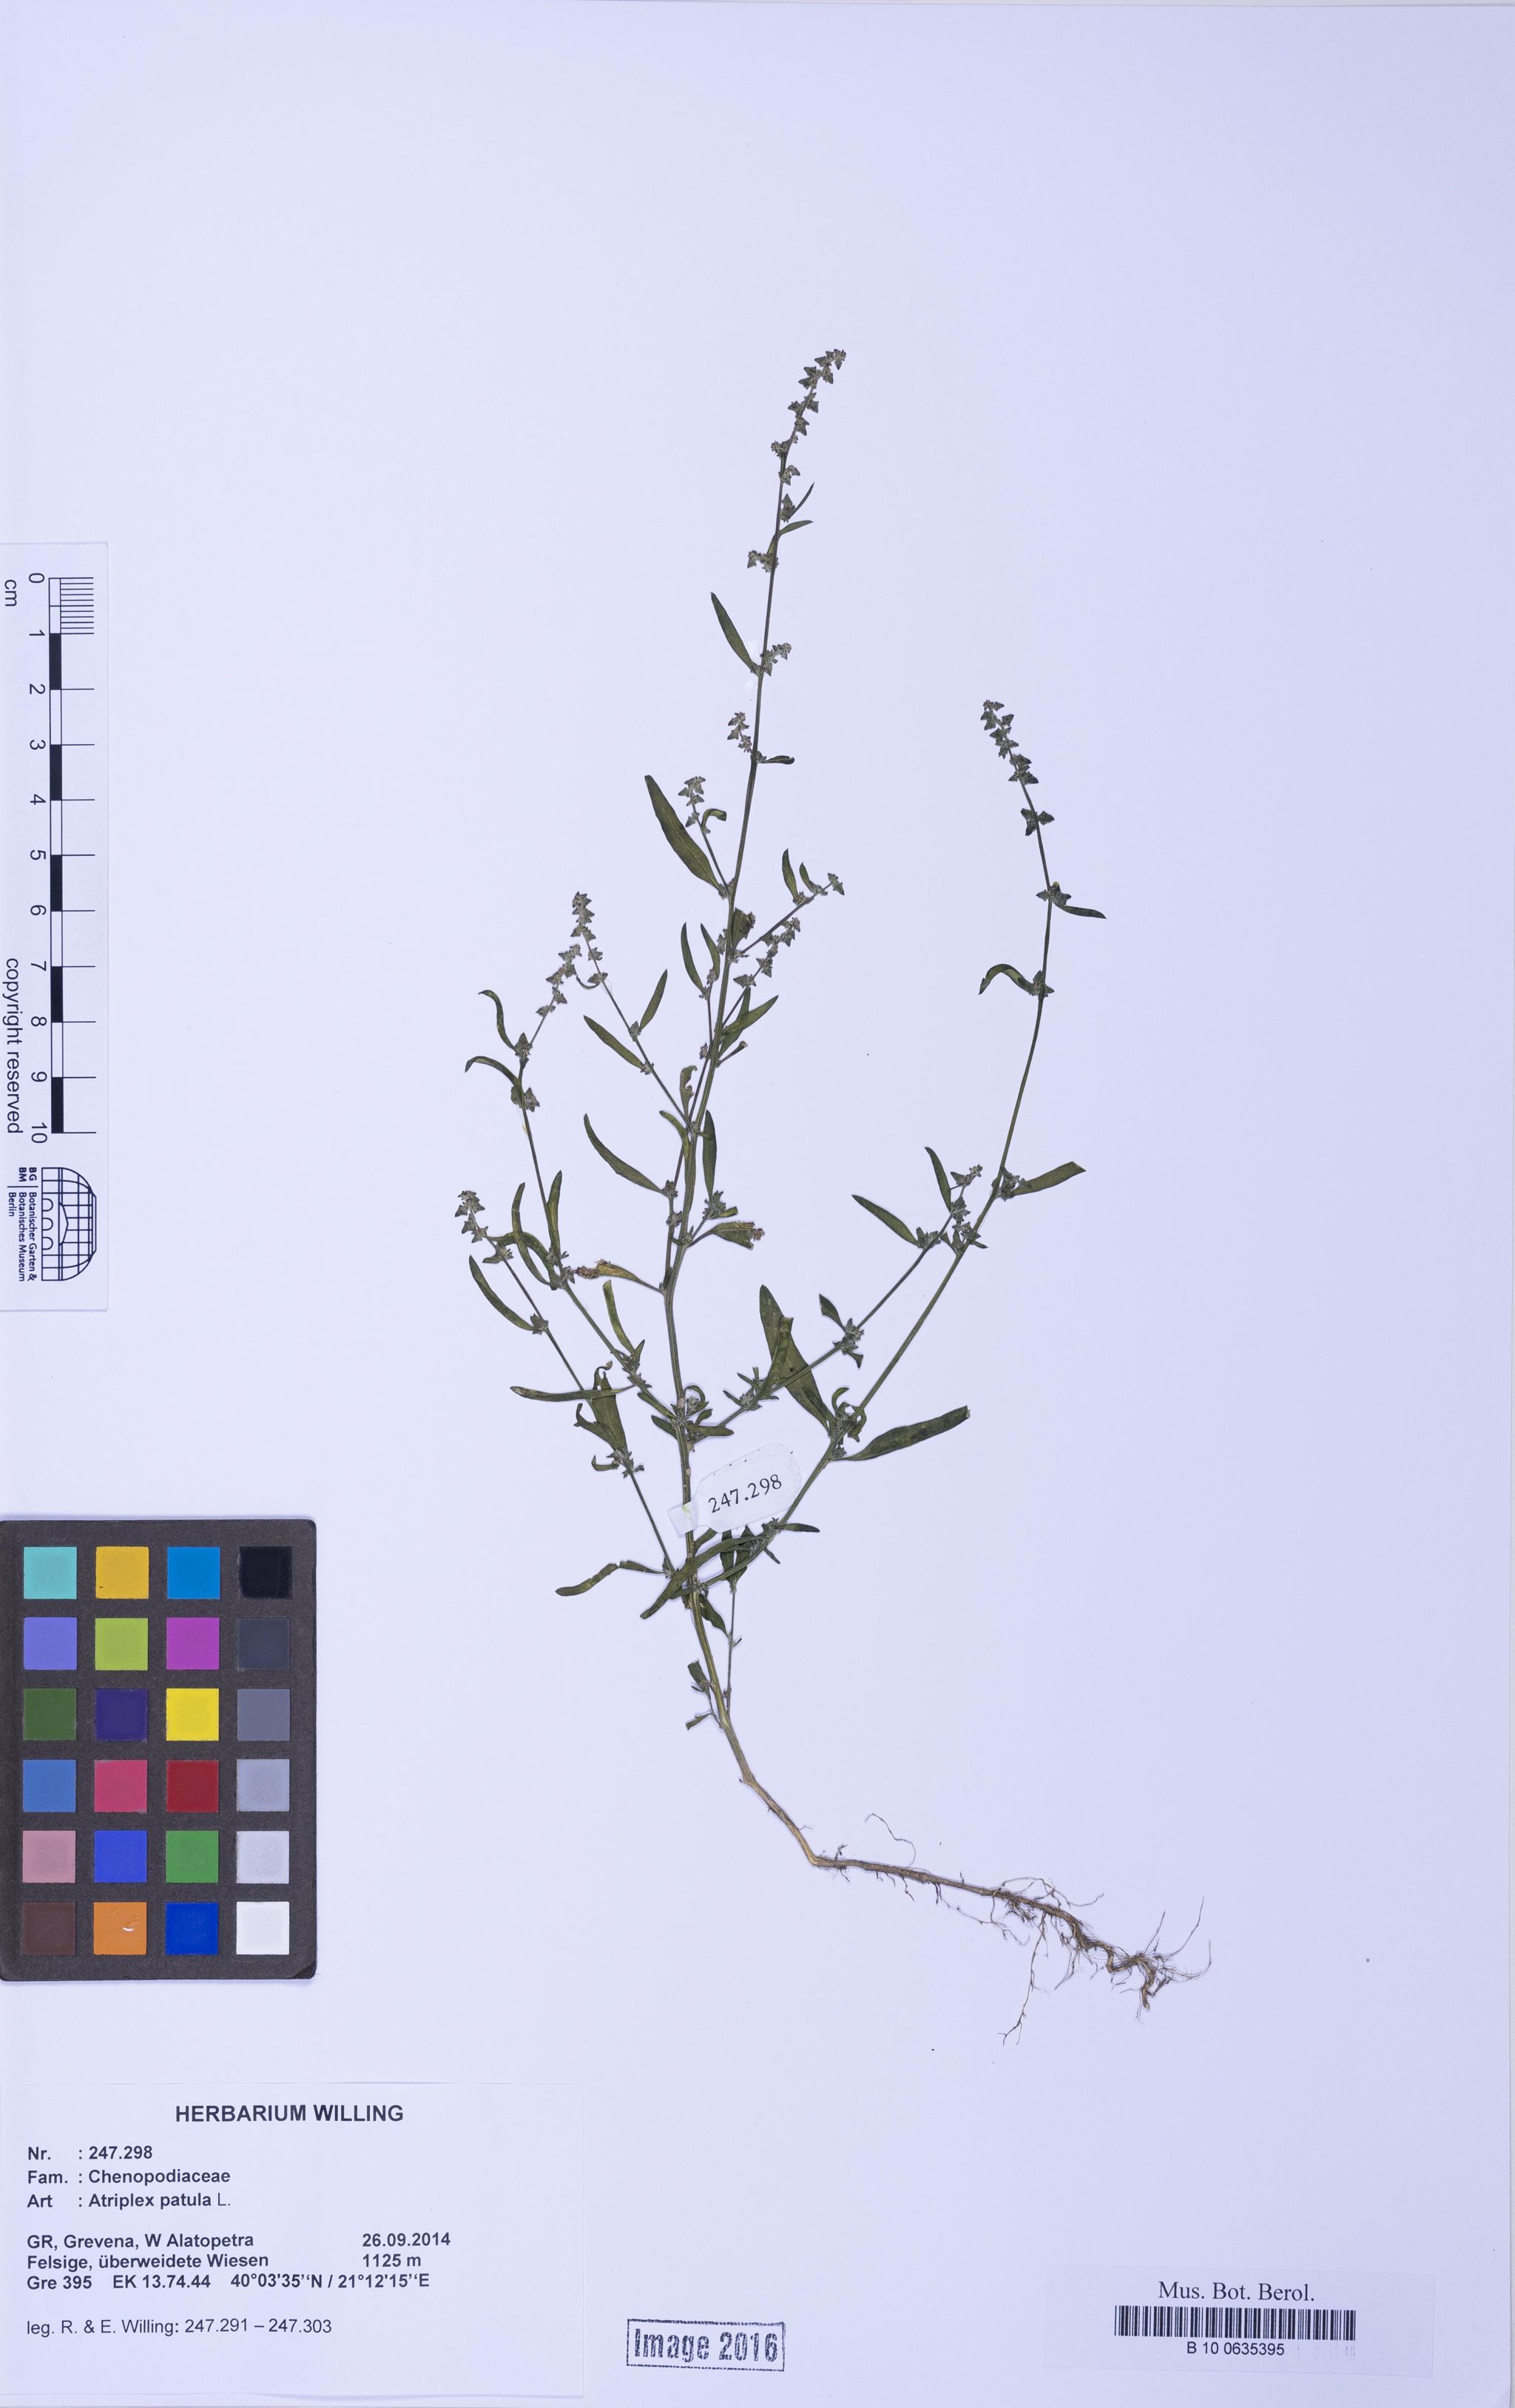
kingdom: Plantae
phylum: Tracheophyta
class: Magnoliopsida
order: Caryophyllales
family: Amaranthaceae
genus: Atriplex
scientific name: Atriplex patula
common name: Common orache
